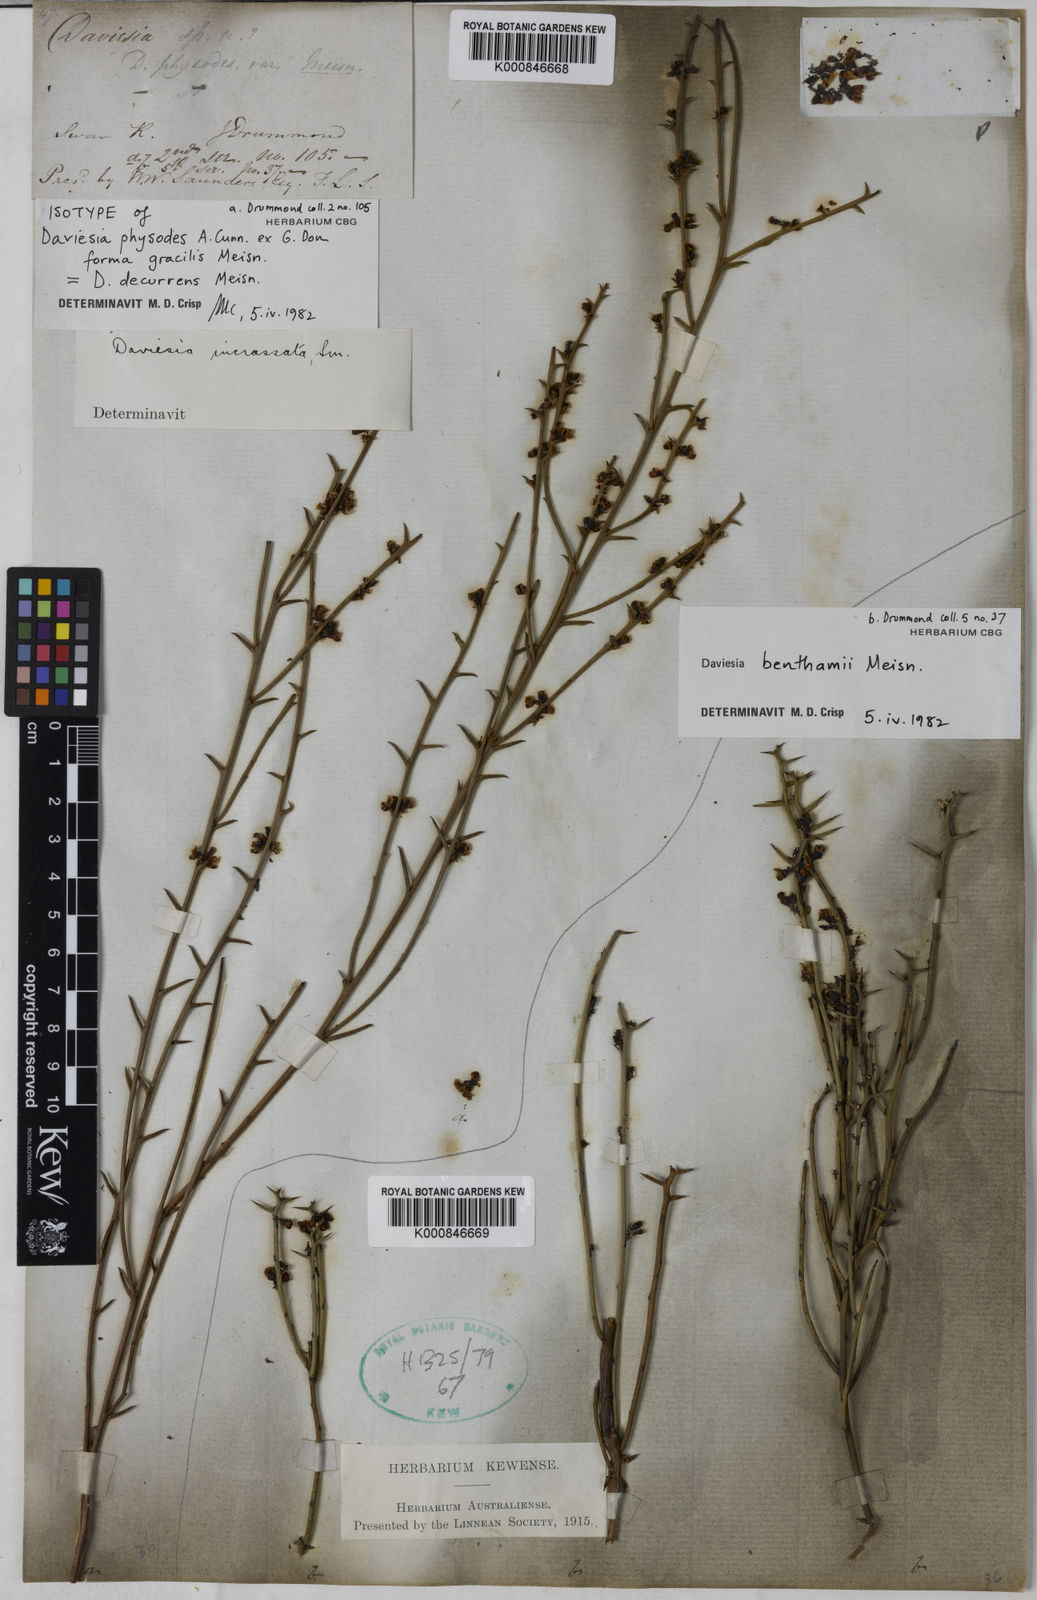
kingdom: Plantae
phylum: Tracheophyta
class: Magnoliopsida
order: Fabales
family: Fabaceae
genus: Daviesia
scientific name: Daviesia decurrens
